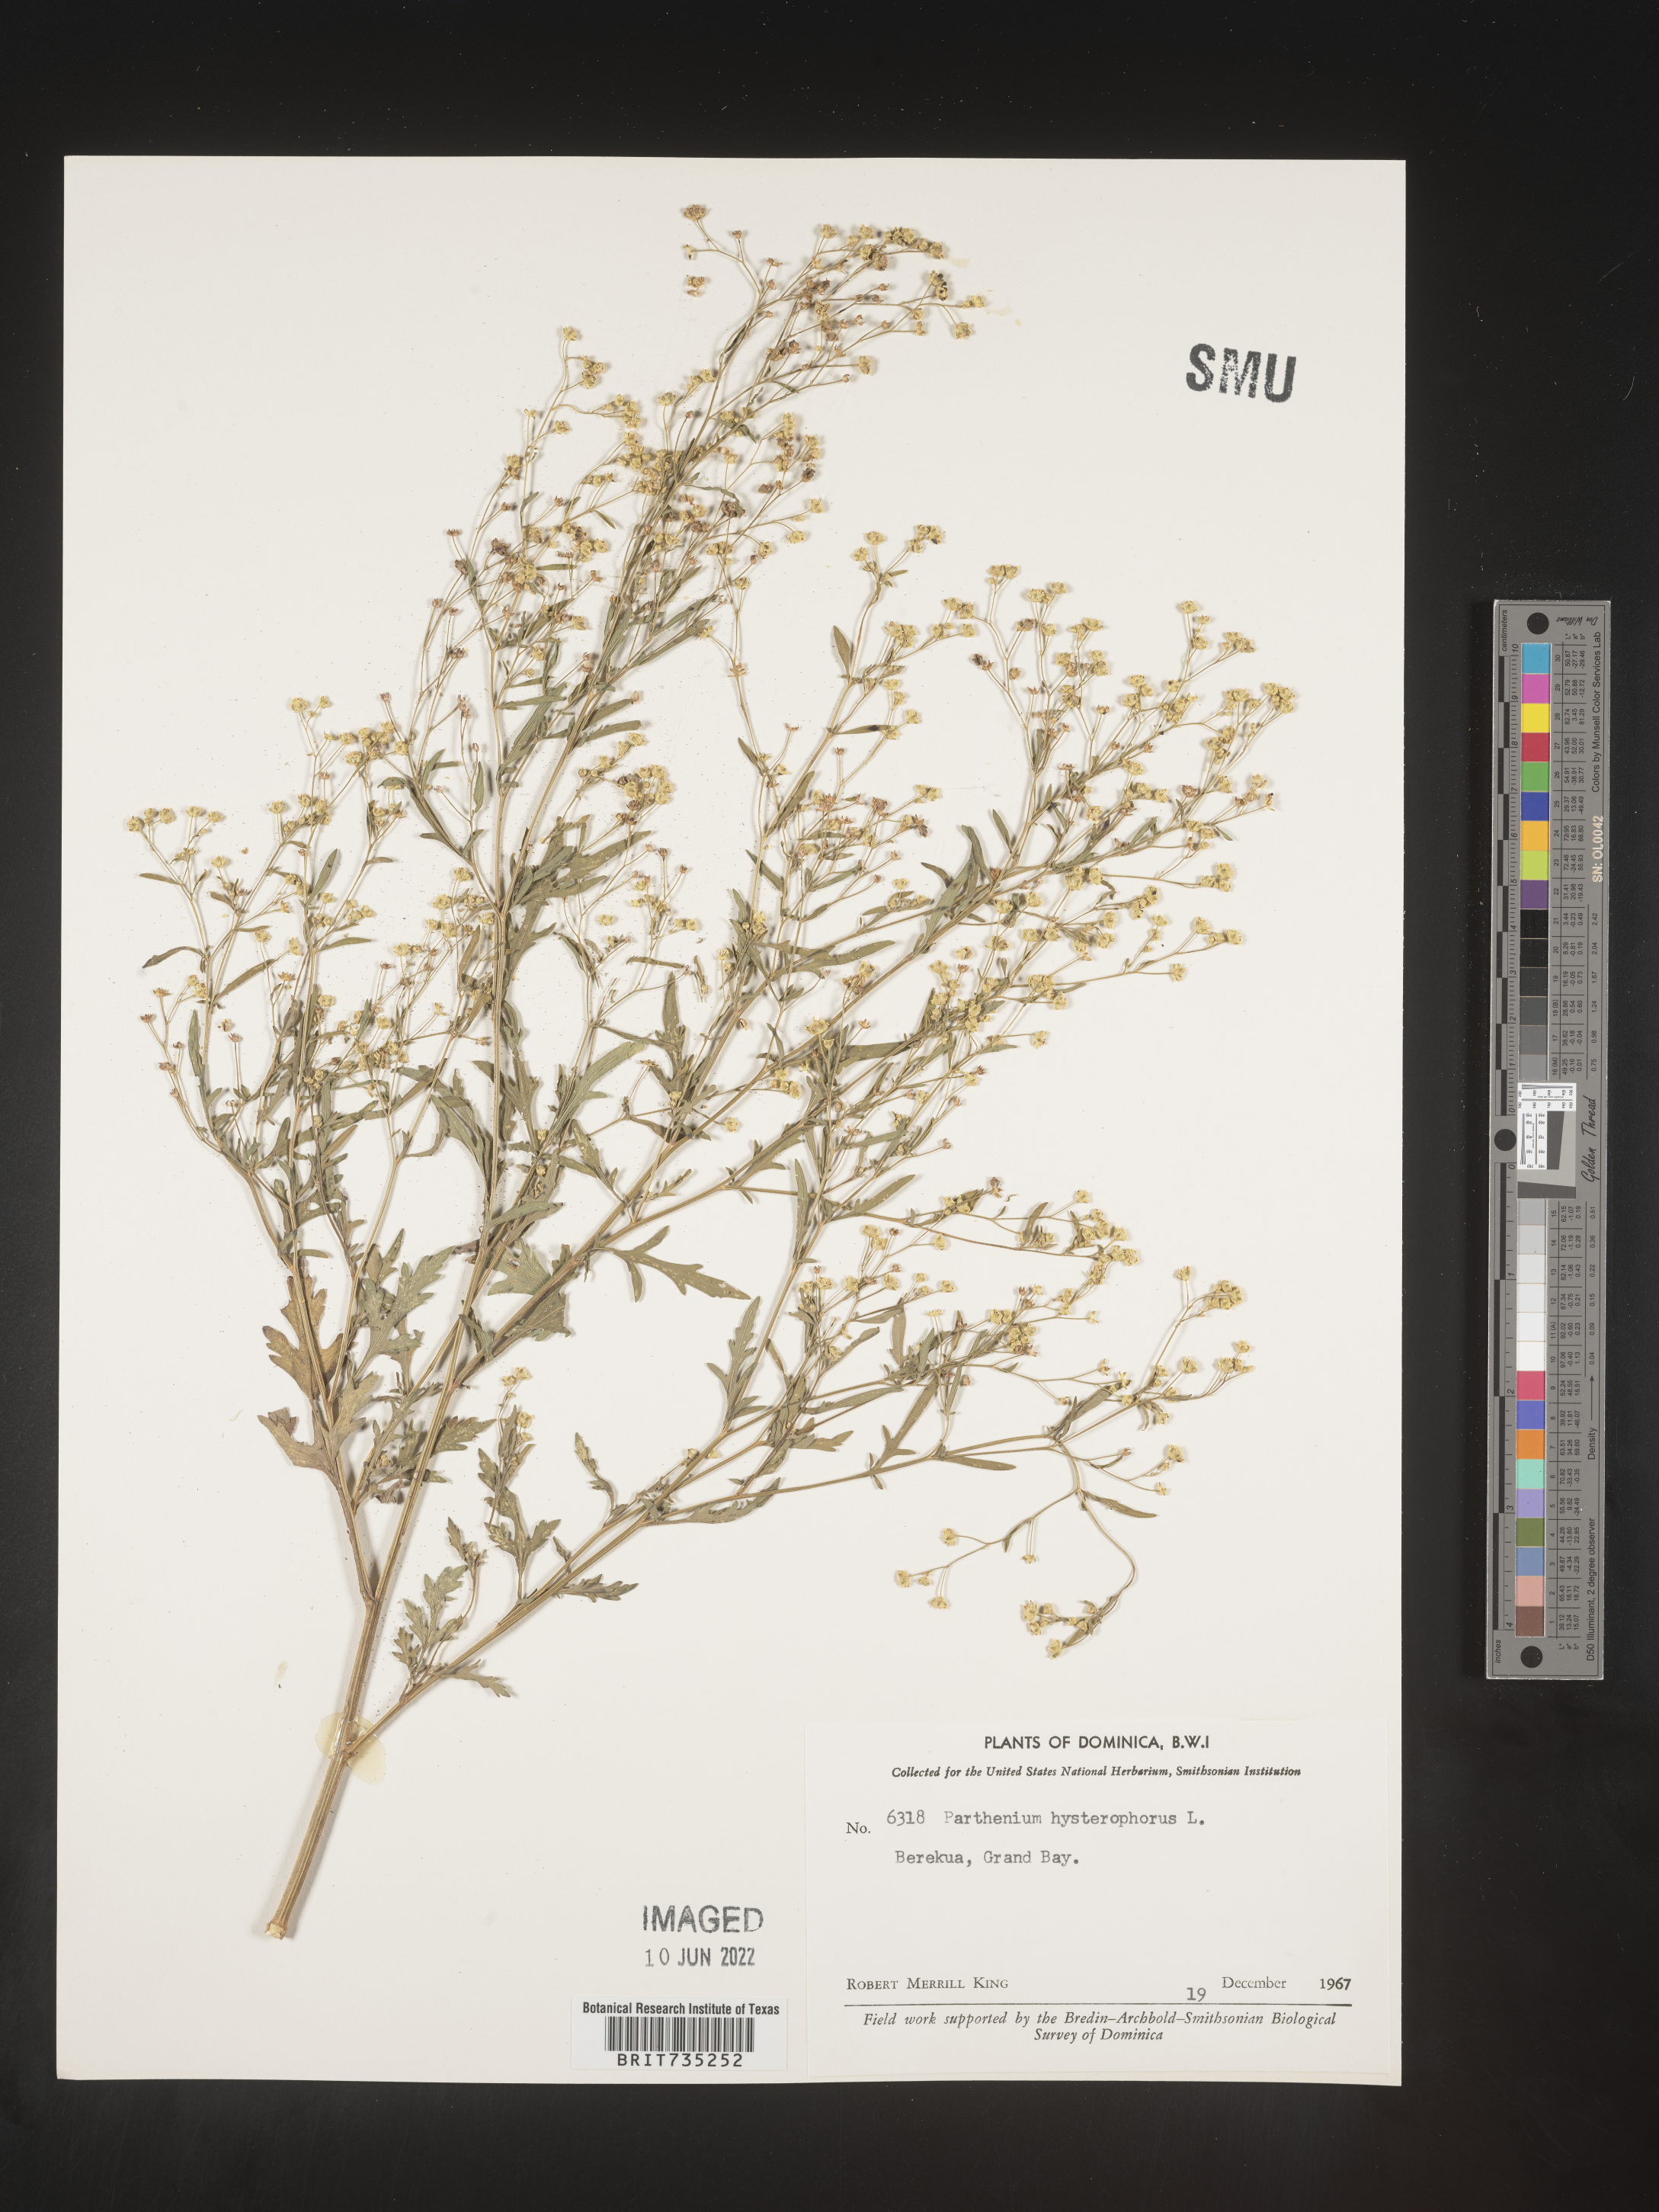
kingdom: Plantae
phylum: Tracheophyta
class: Magnoliopsida
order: Asterales
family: Asteraceae
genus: Parthenium
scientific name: Parthenium
